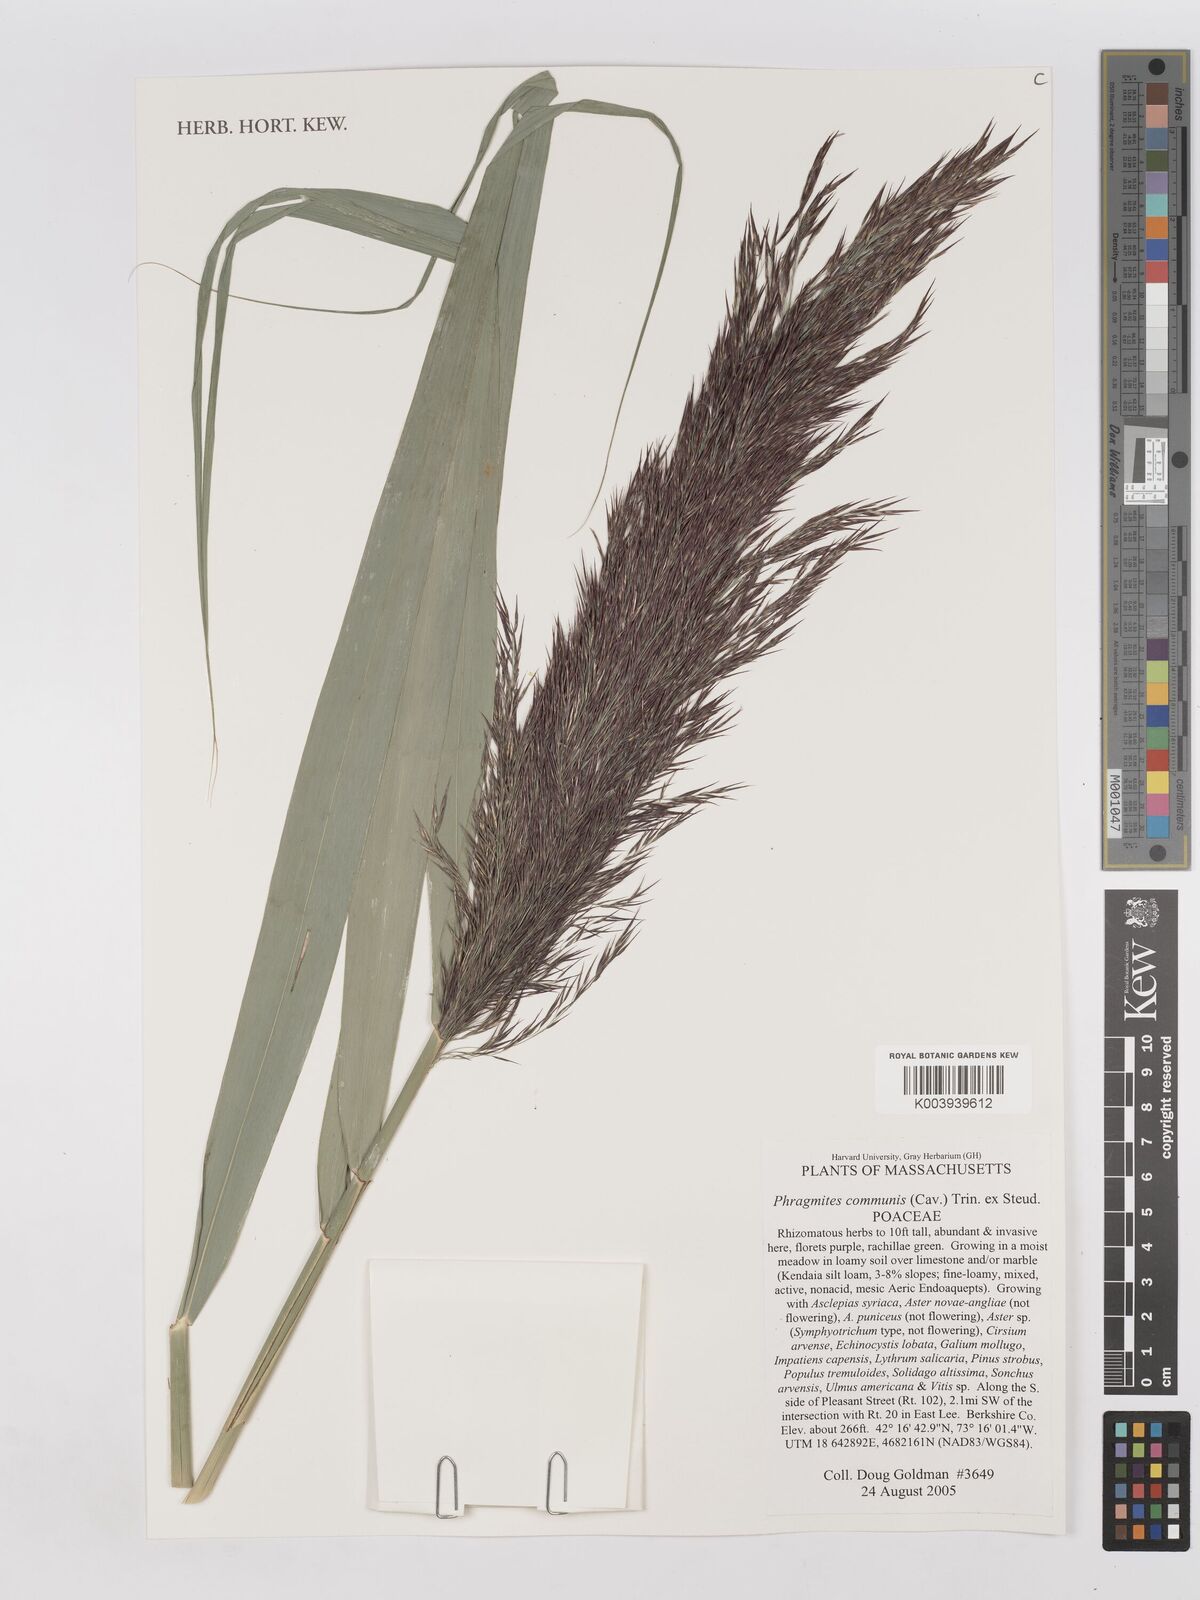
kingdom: Plantae
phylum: Tracheophyta
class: Liliopsida
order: Poales
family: Poaceae
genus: Phragmites
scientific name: Phragmites australis
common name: Common reed
